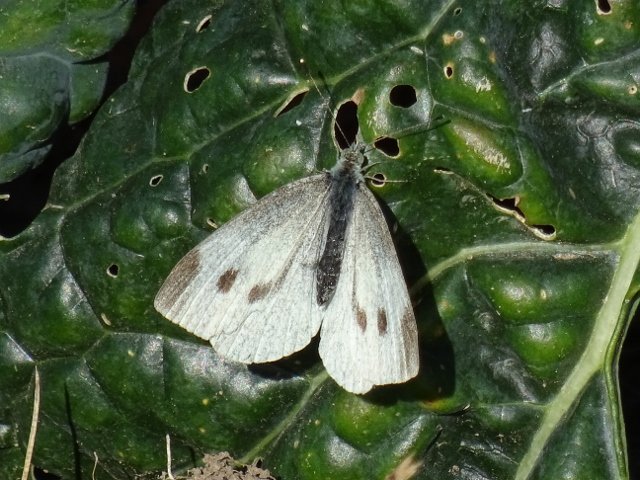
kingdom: Animalia
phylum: Arthropoda
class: Insecta
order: Lepidoptera
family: Pieridae
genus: Pieris
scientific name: Pieris rapae
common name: Cabbage White
